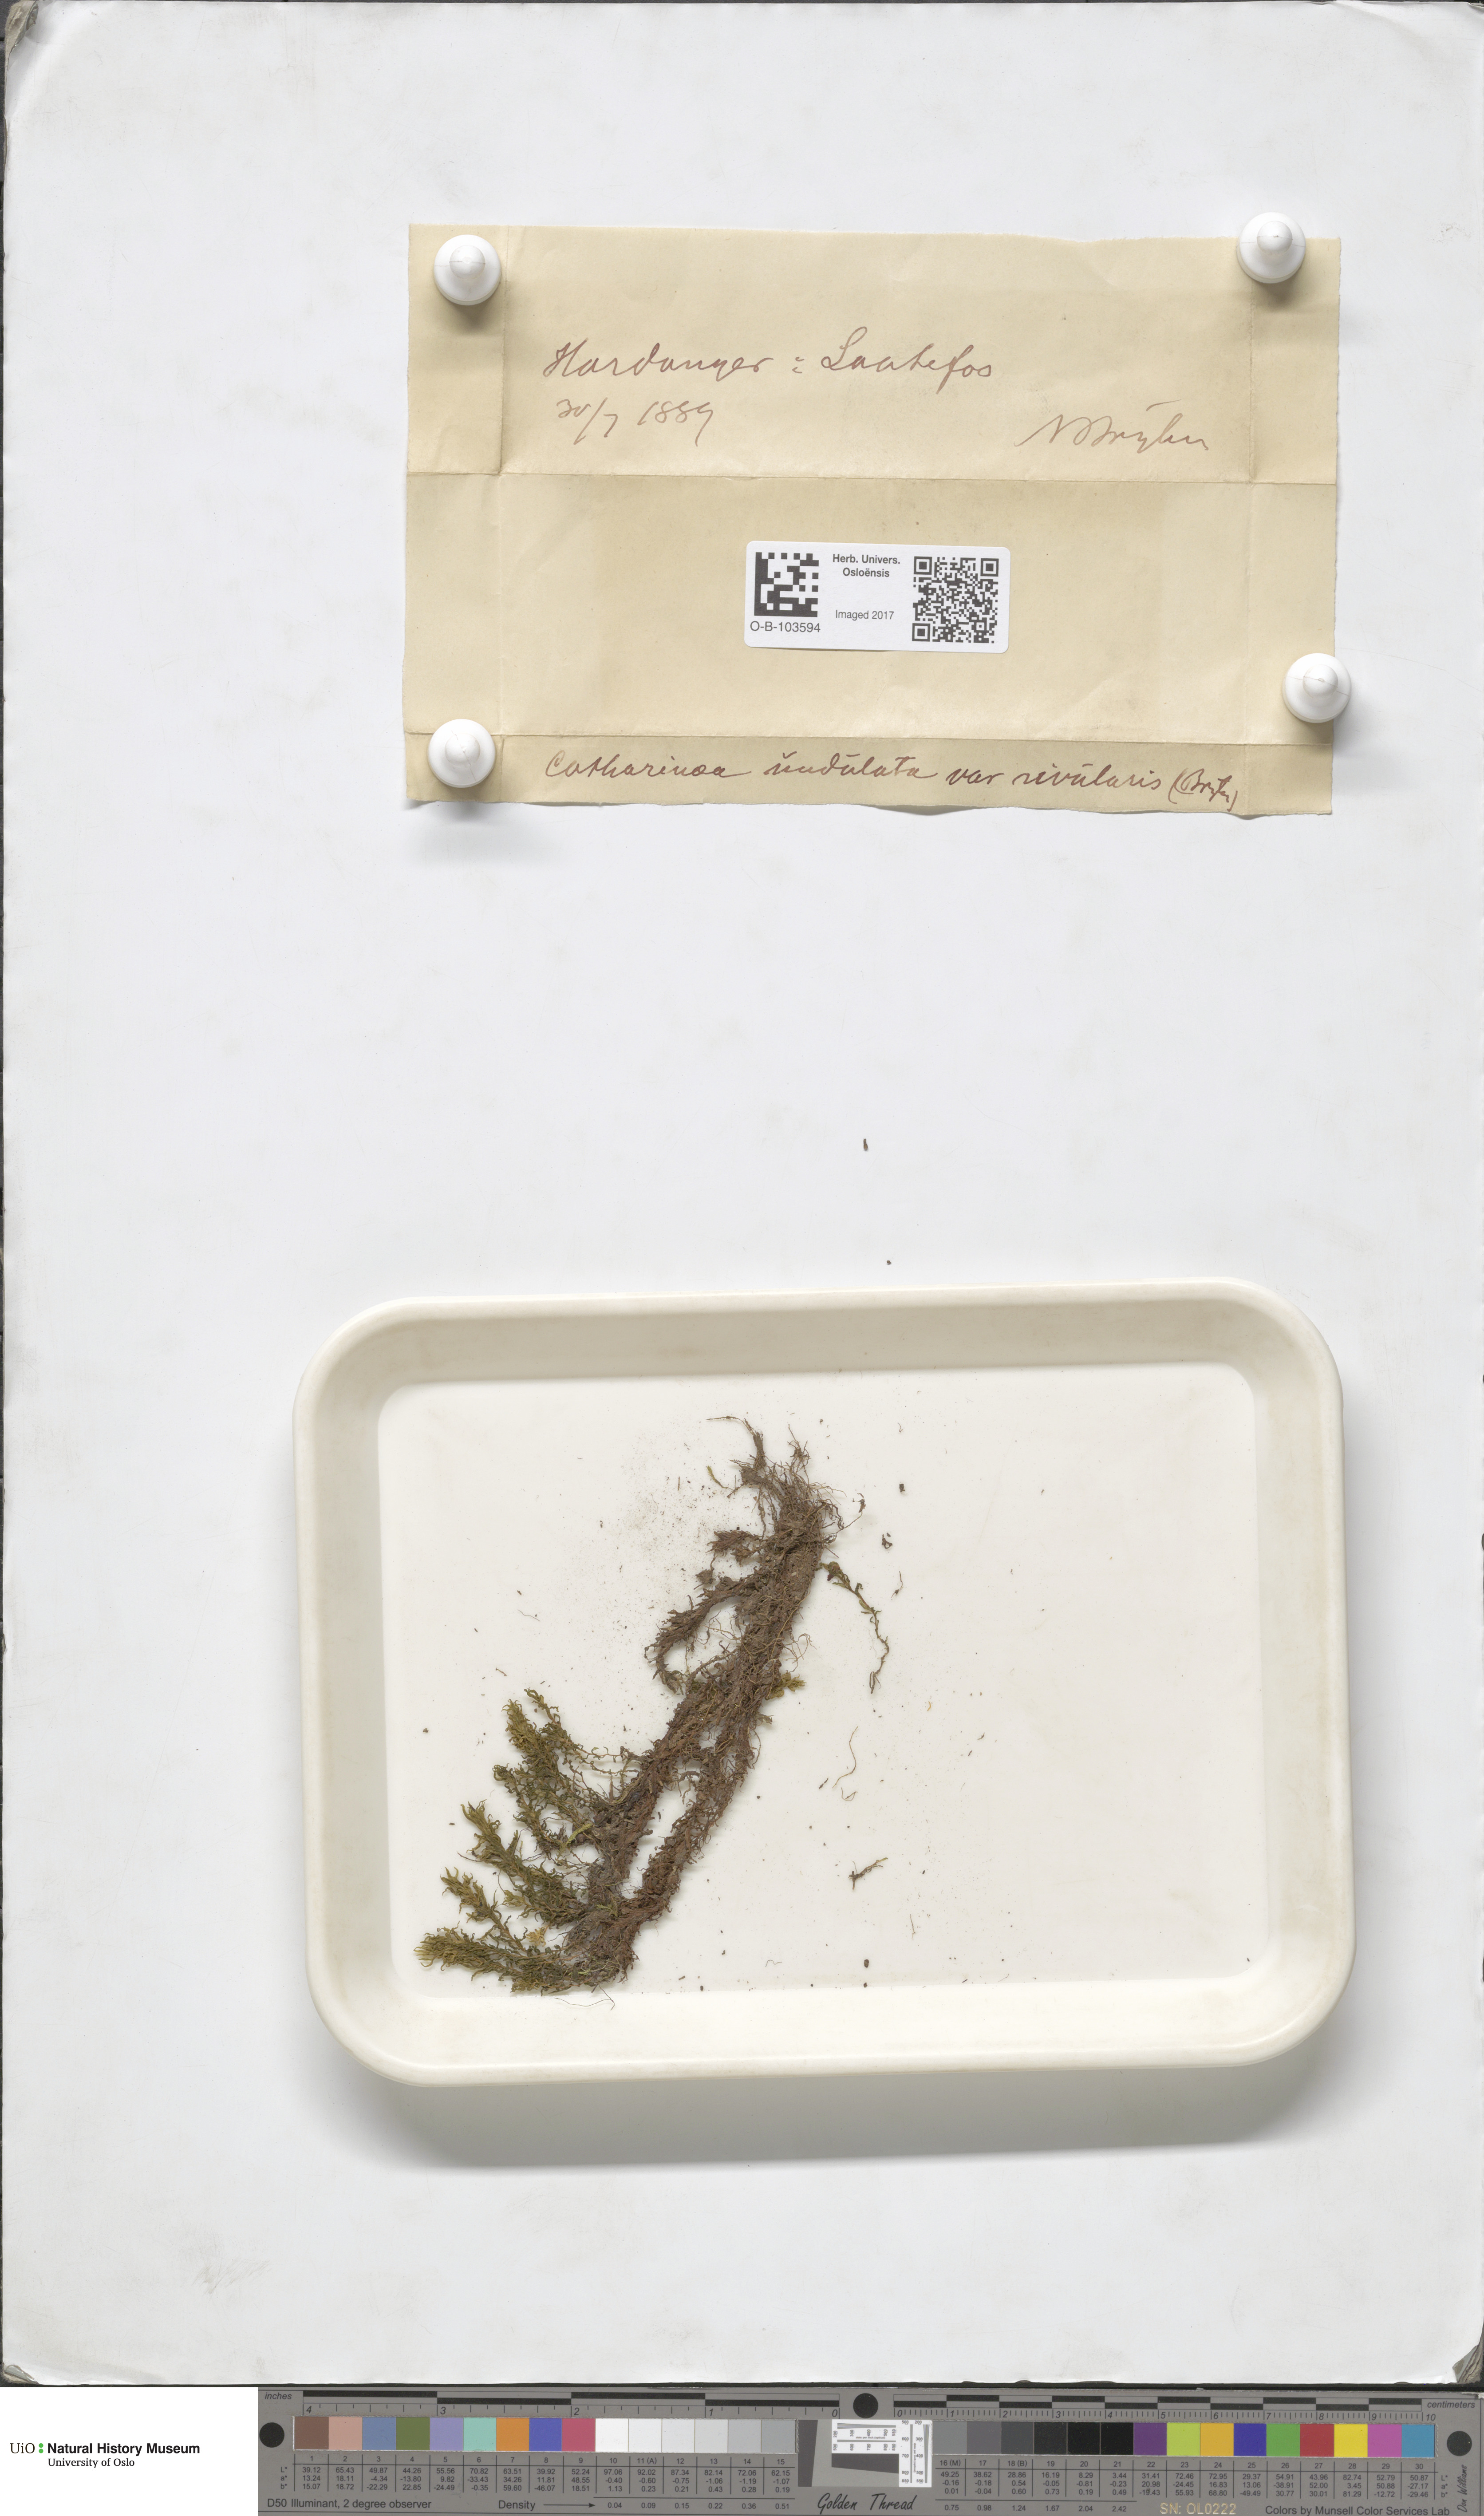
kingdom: Plantae
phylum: Bryophyta
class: Polytrichopsida
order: Polytrichales
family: Polytrichaceae
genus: Atrichum
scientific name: Atrichum undulatum
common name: Common smoothcap
